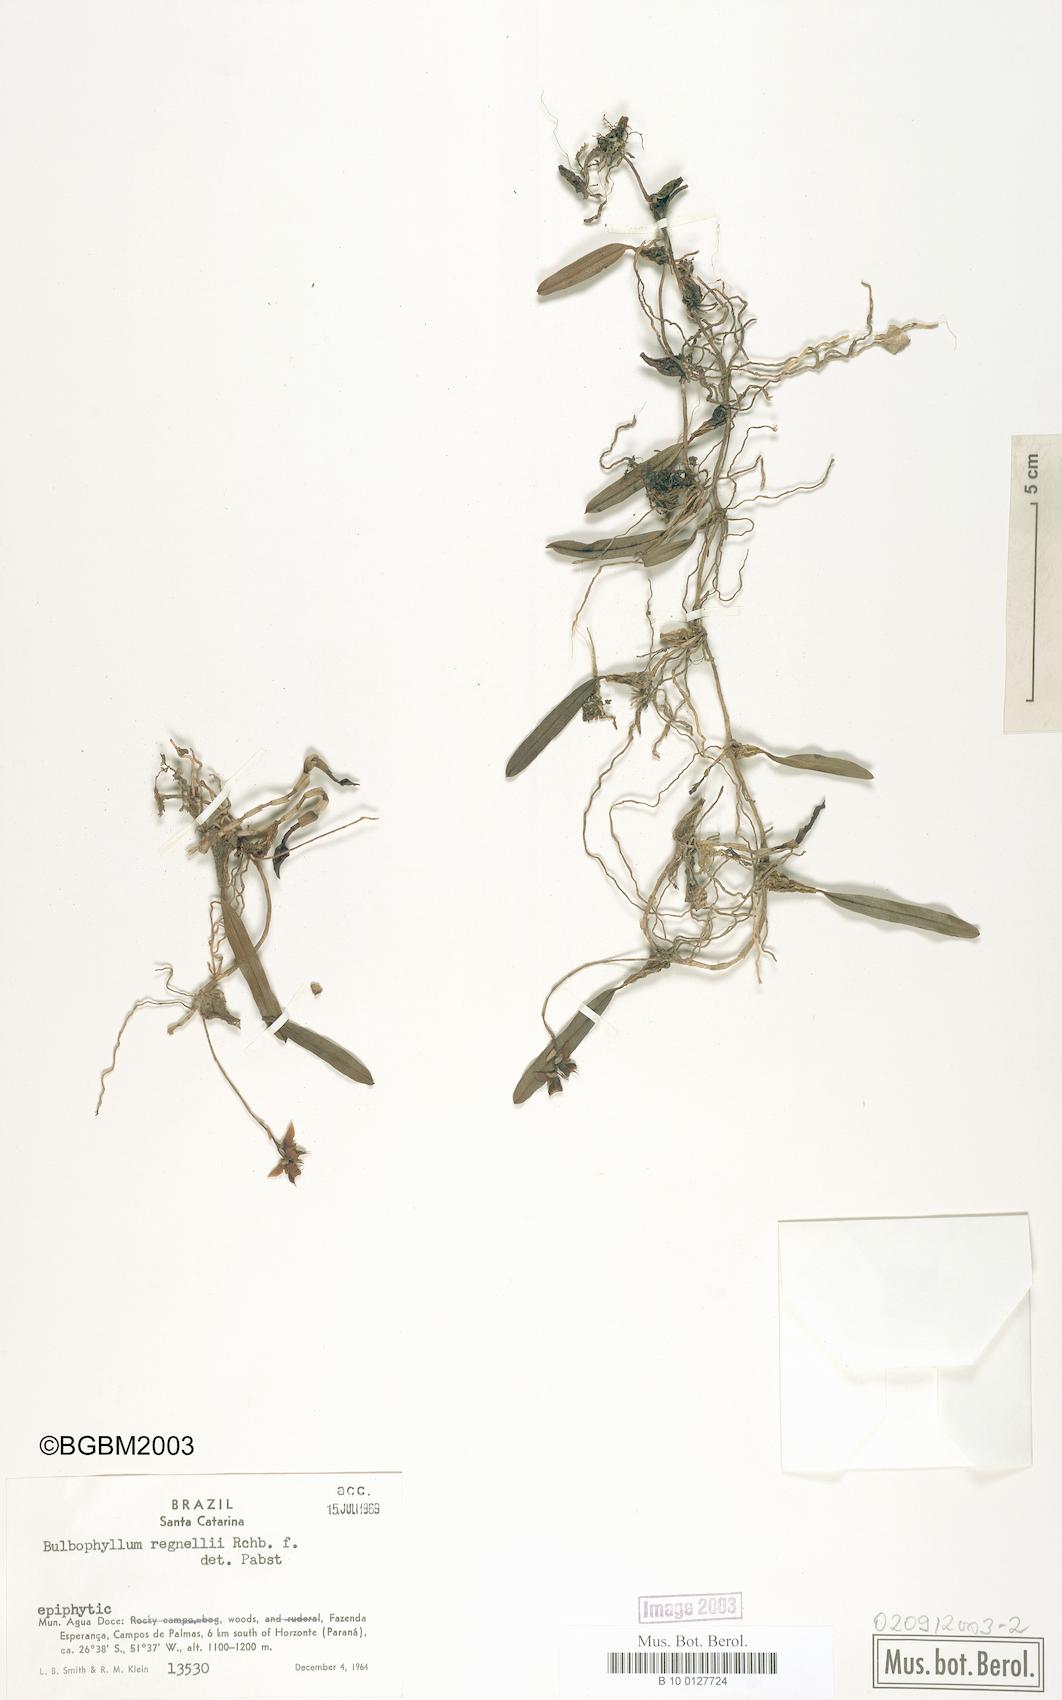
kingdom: Plantae
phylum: Tracheophyta
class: Liliopsida
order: Asparagales
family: Orchidaceae
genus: Bulbophyllum
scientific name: Bulbophyllum regnellii
